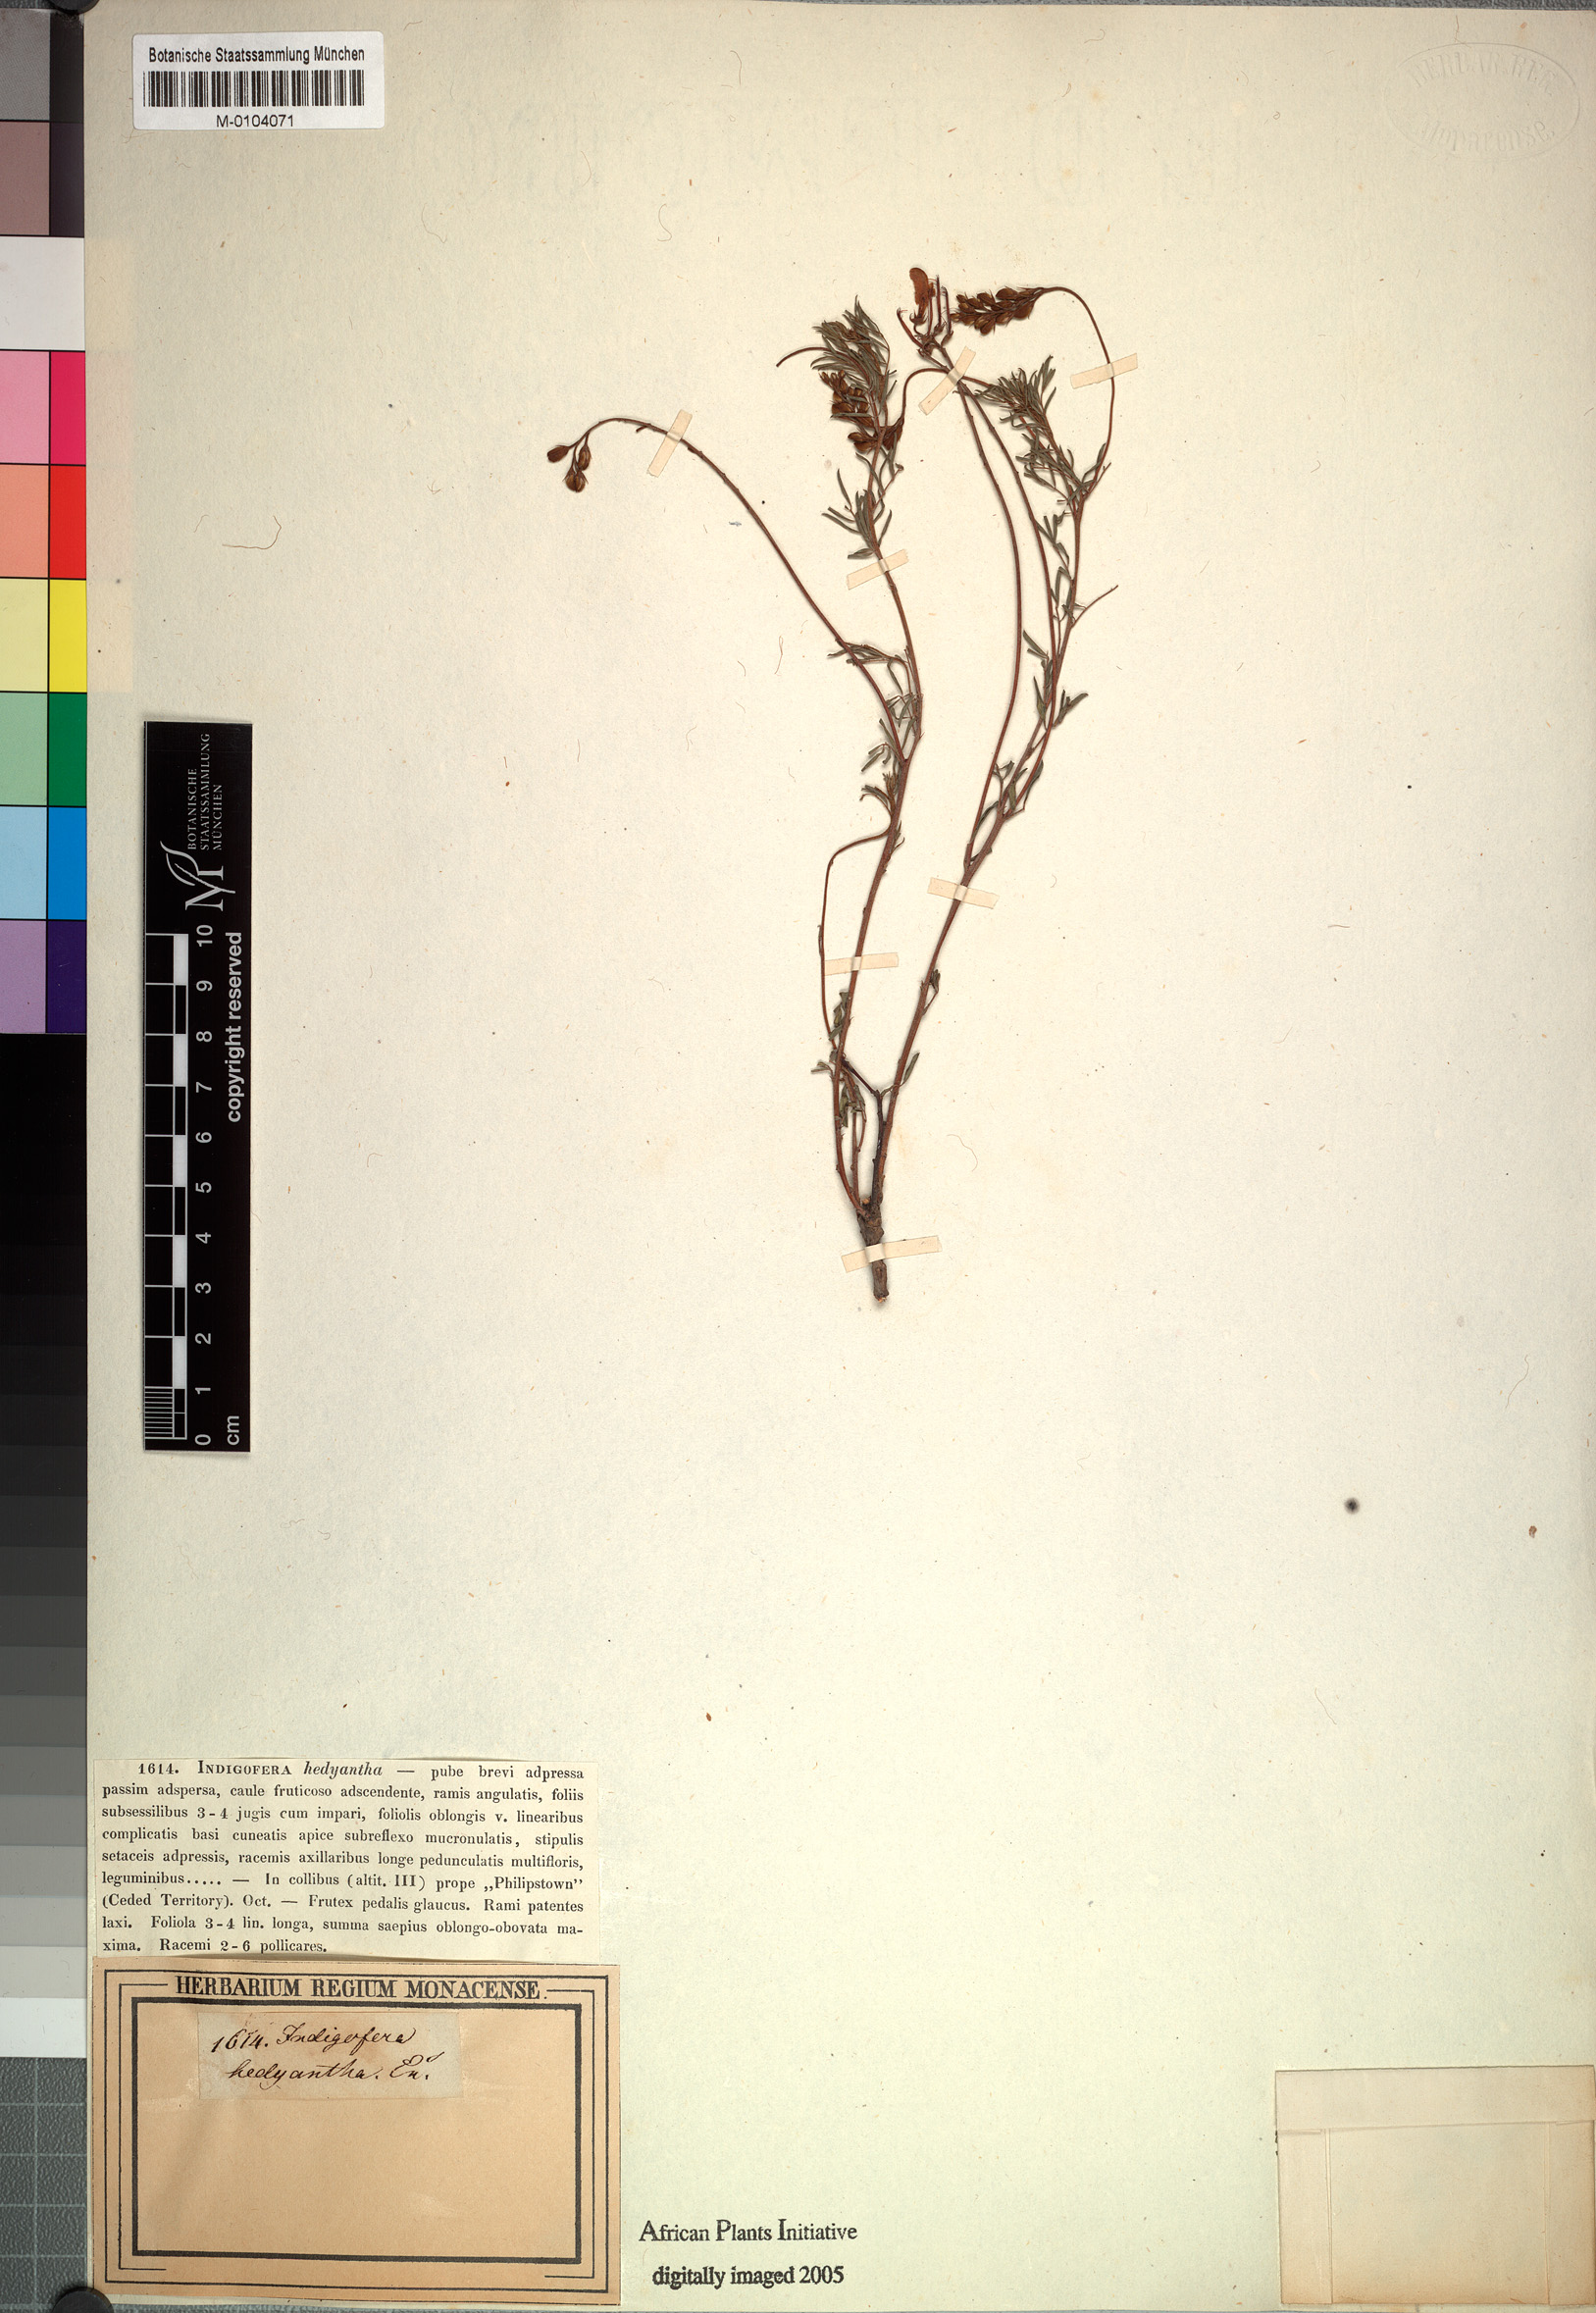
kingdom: Plantae
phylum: Tracheophyta
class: Magnoliopsida
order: Fabales
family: Fabaceae
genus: Indigofera
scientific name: Indigofera hedyantha
